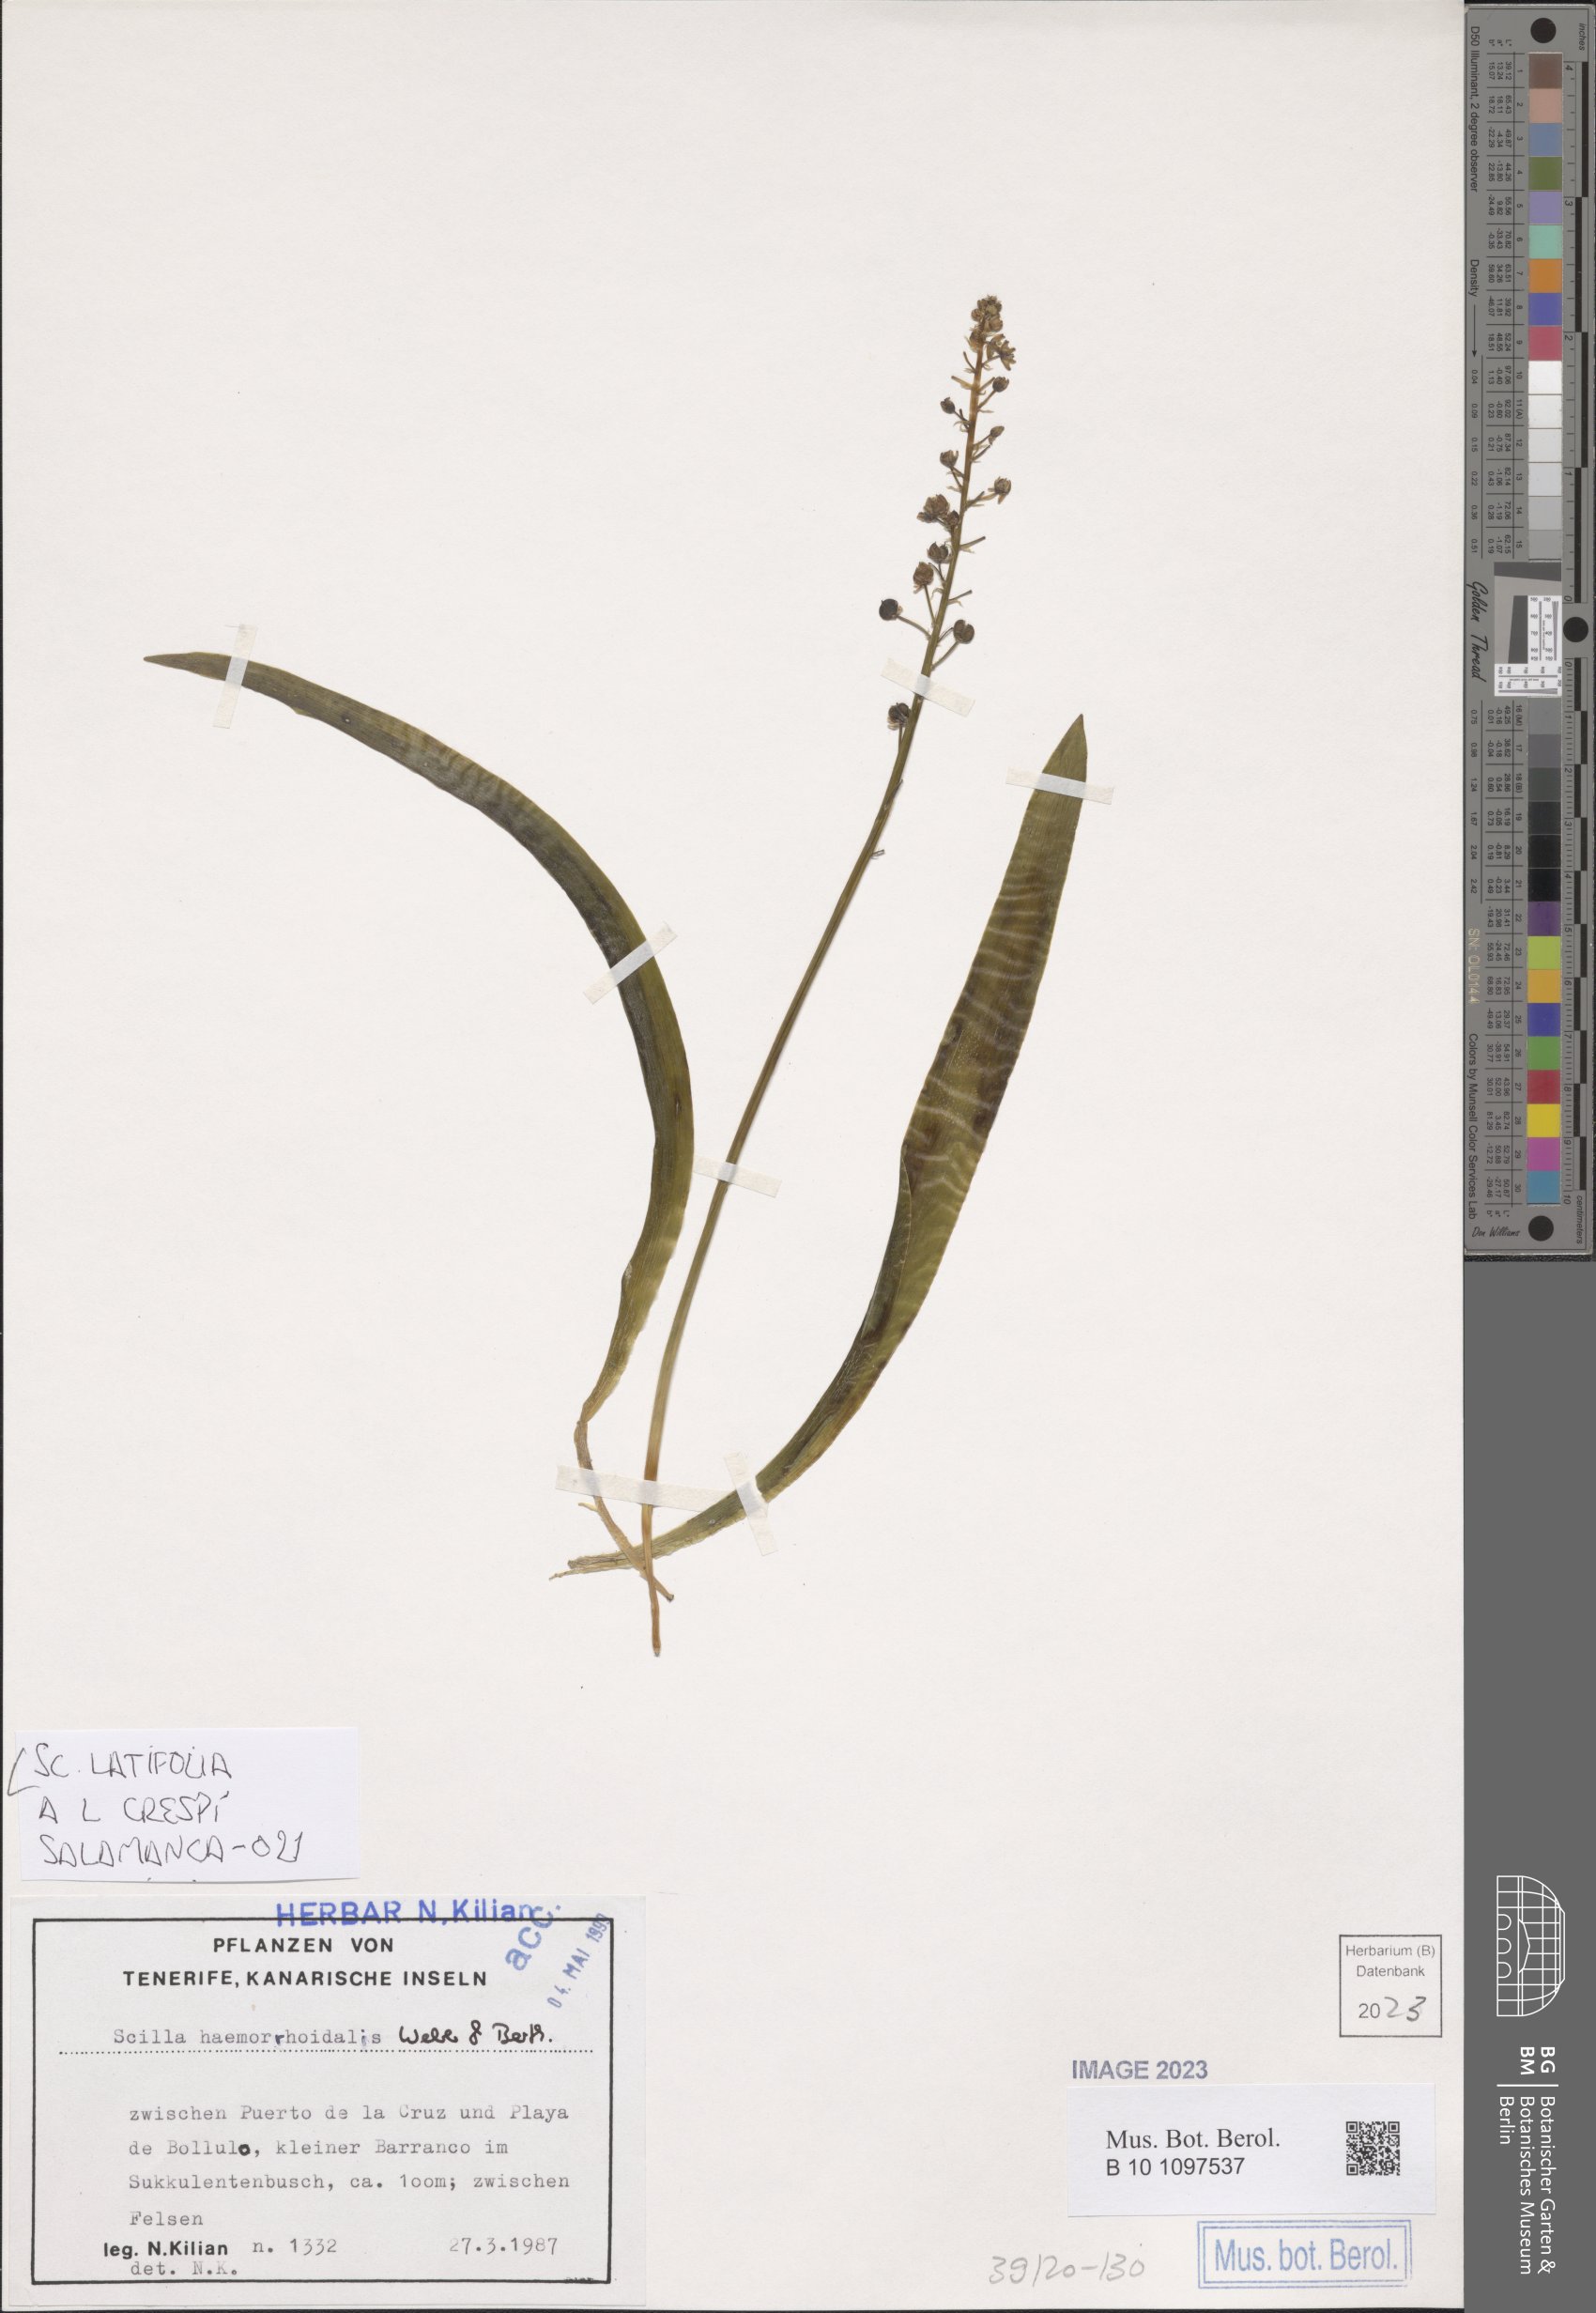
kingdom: Plantae
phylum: Tracheophyta
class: Liliopsida
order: Asparagales
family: Asparagaceae
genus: Scilla
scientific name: Scilla latifolia
